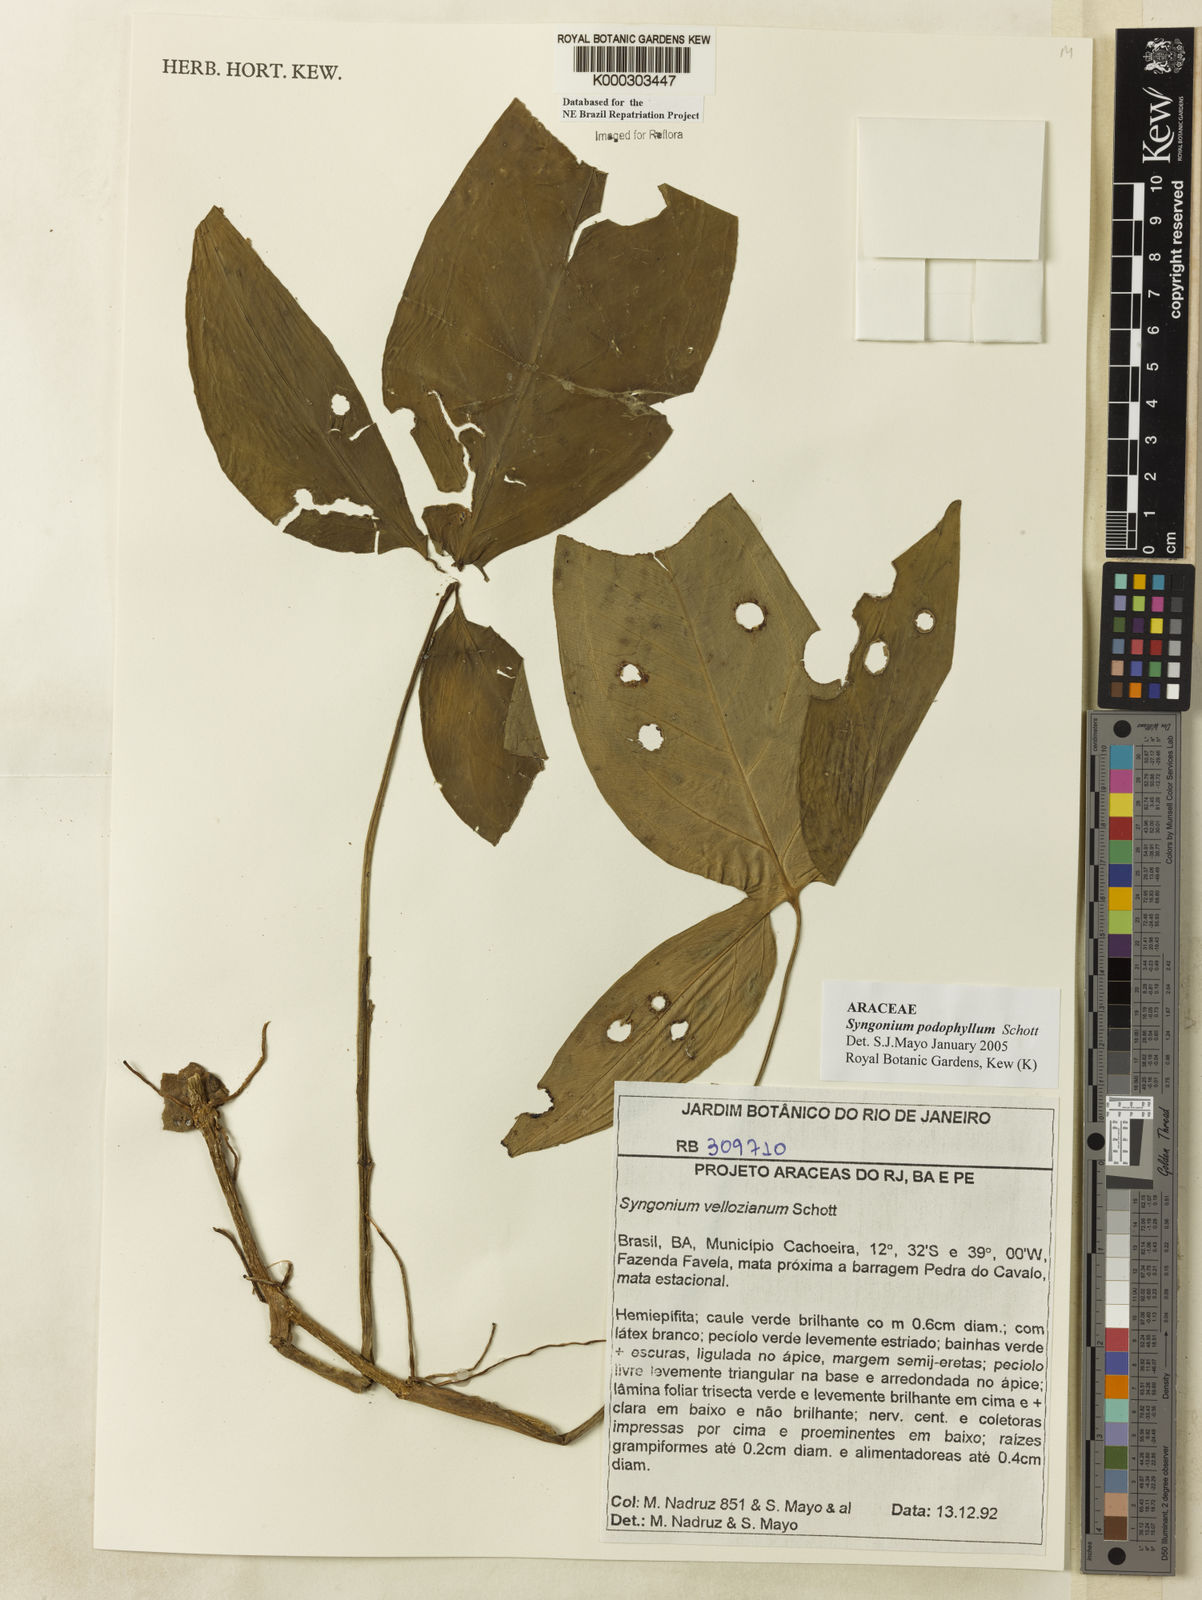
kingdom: Plantae
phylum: Tracheophyta
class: Liliopsida
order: Alismatales
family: Araceae
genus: Syngonium
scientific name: Syngonium podophyllum
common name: American evergreen
